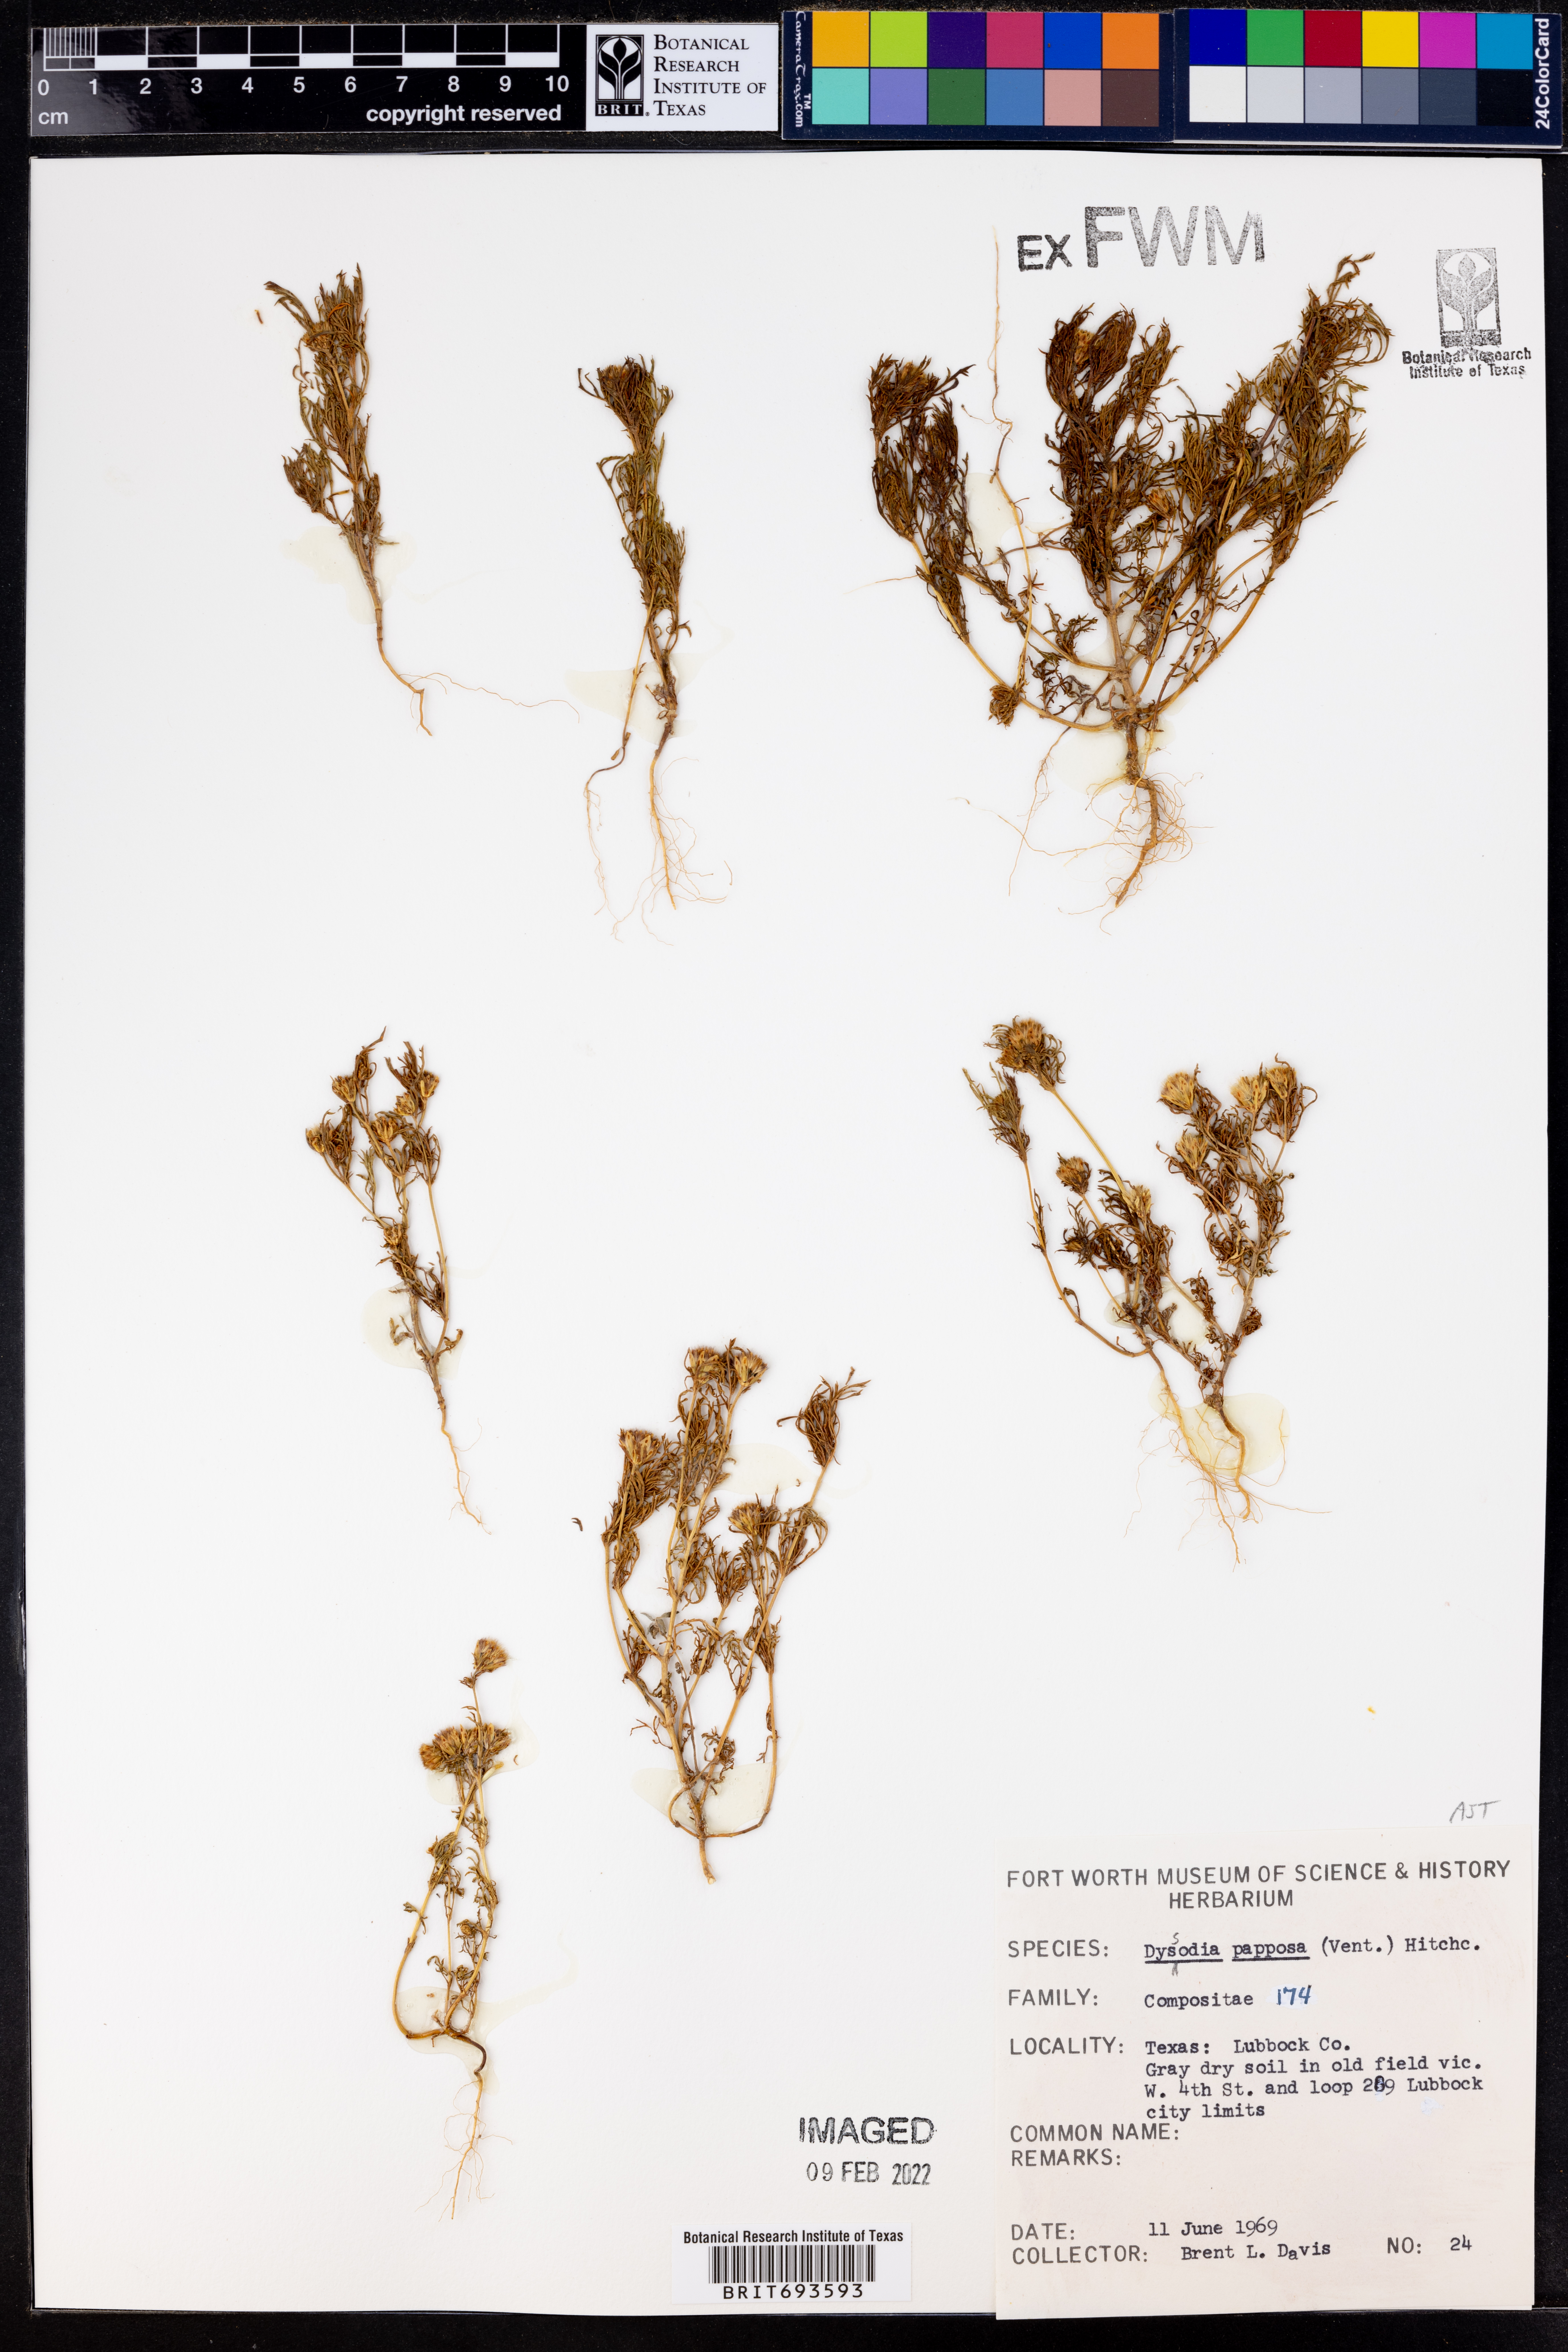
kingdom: Plantae
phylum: Tracheophyta
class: Magnoliopsida
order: Asterales
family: Asteraceae
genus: Dyssodia
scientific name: Dyssodia papposa
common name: Dogweed
